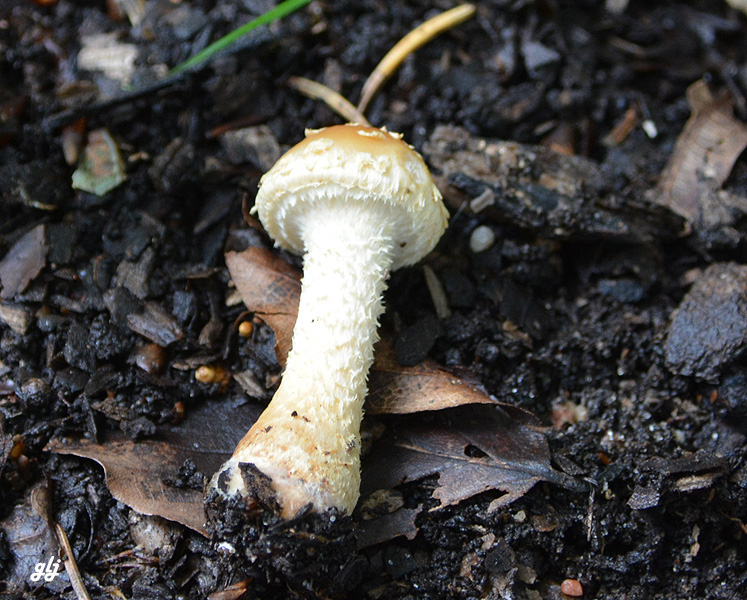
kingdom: Fungi
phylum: Basidiomycota
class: Agaricomycetes
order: Agaricales
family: Strophariaceae
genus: Leratiomyces
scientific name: Leratiomyces squamosus
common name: skællet bredblad
